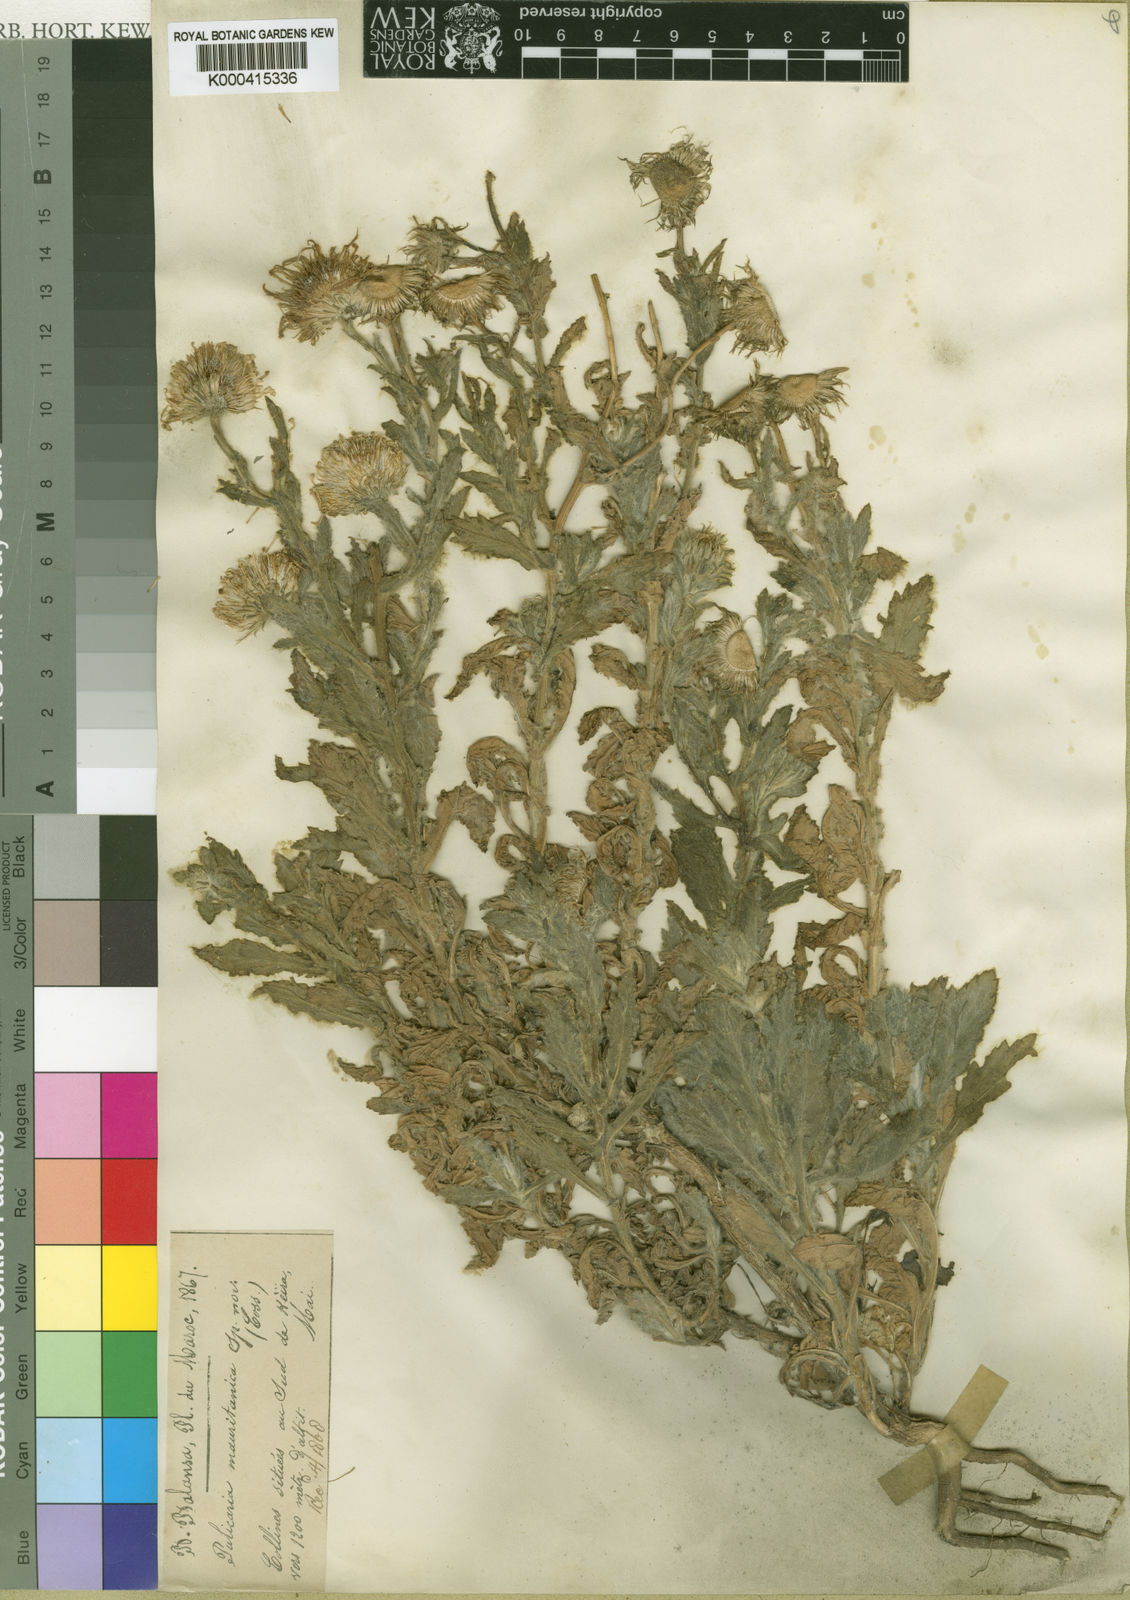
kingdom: Plantae
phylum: Tracheophyta
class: Magnoliopsida
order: Asterales
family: Asteraceae
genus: Pulicaria
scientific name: Pulicaria mauritanica
